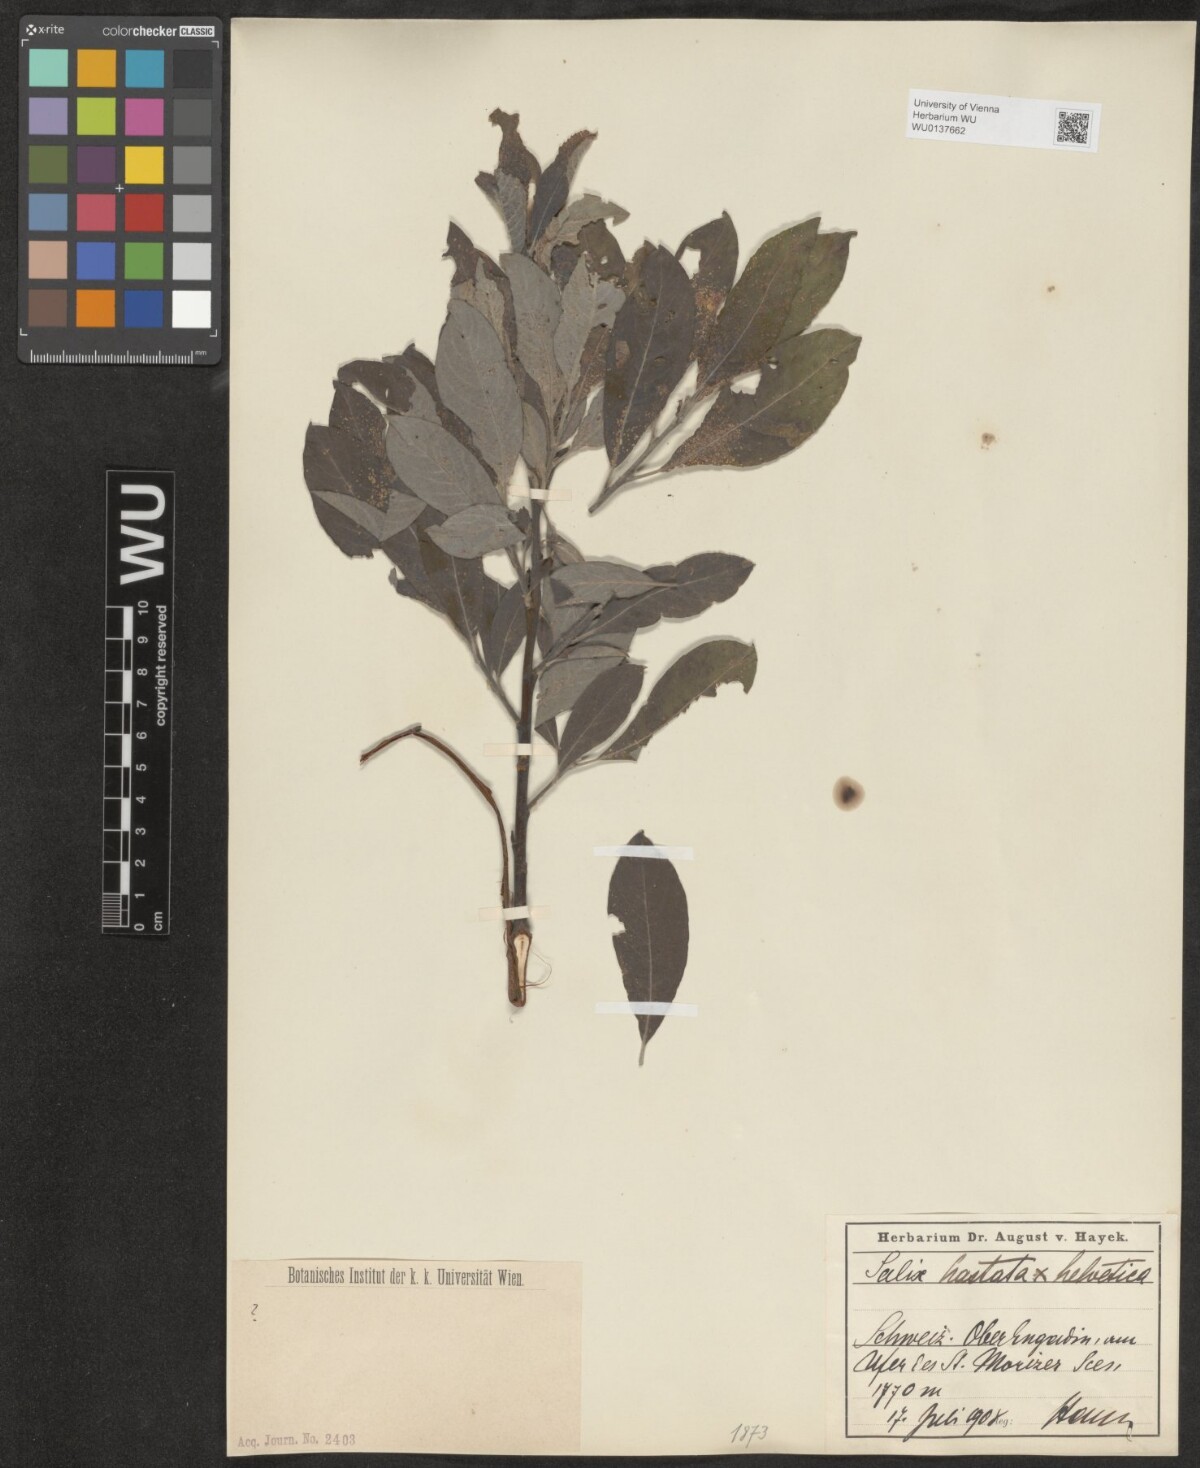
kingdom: Plantae
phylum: Tracheophyta
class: Magnoliopsida
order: Malpighiales
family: Salicaceae
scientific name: Salicaceae
